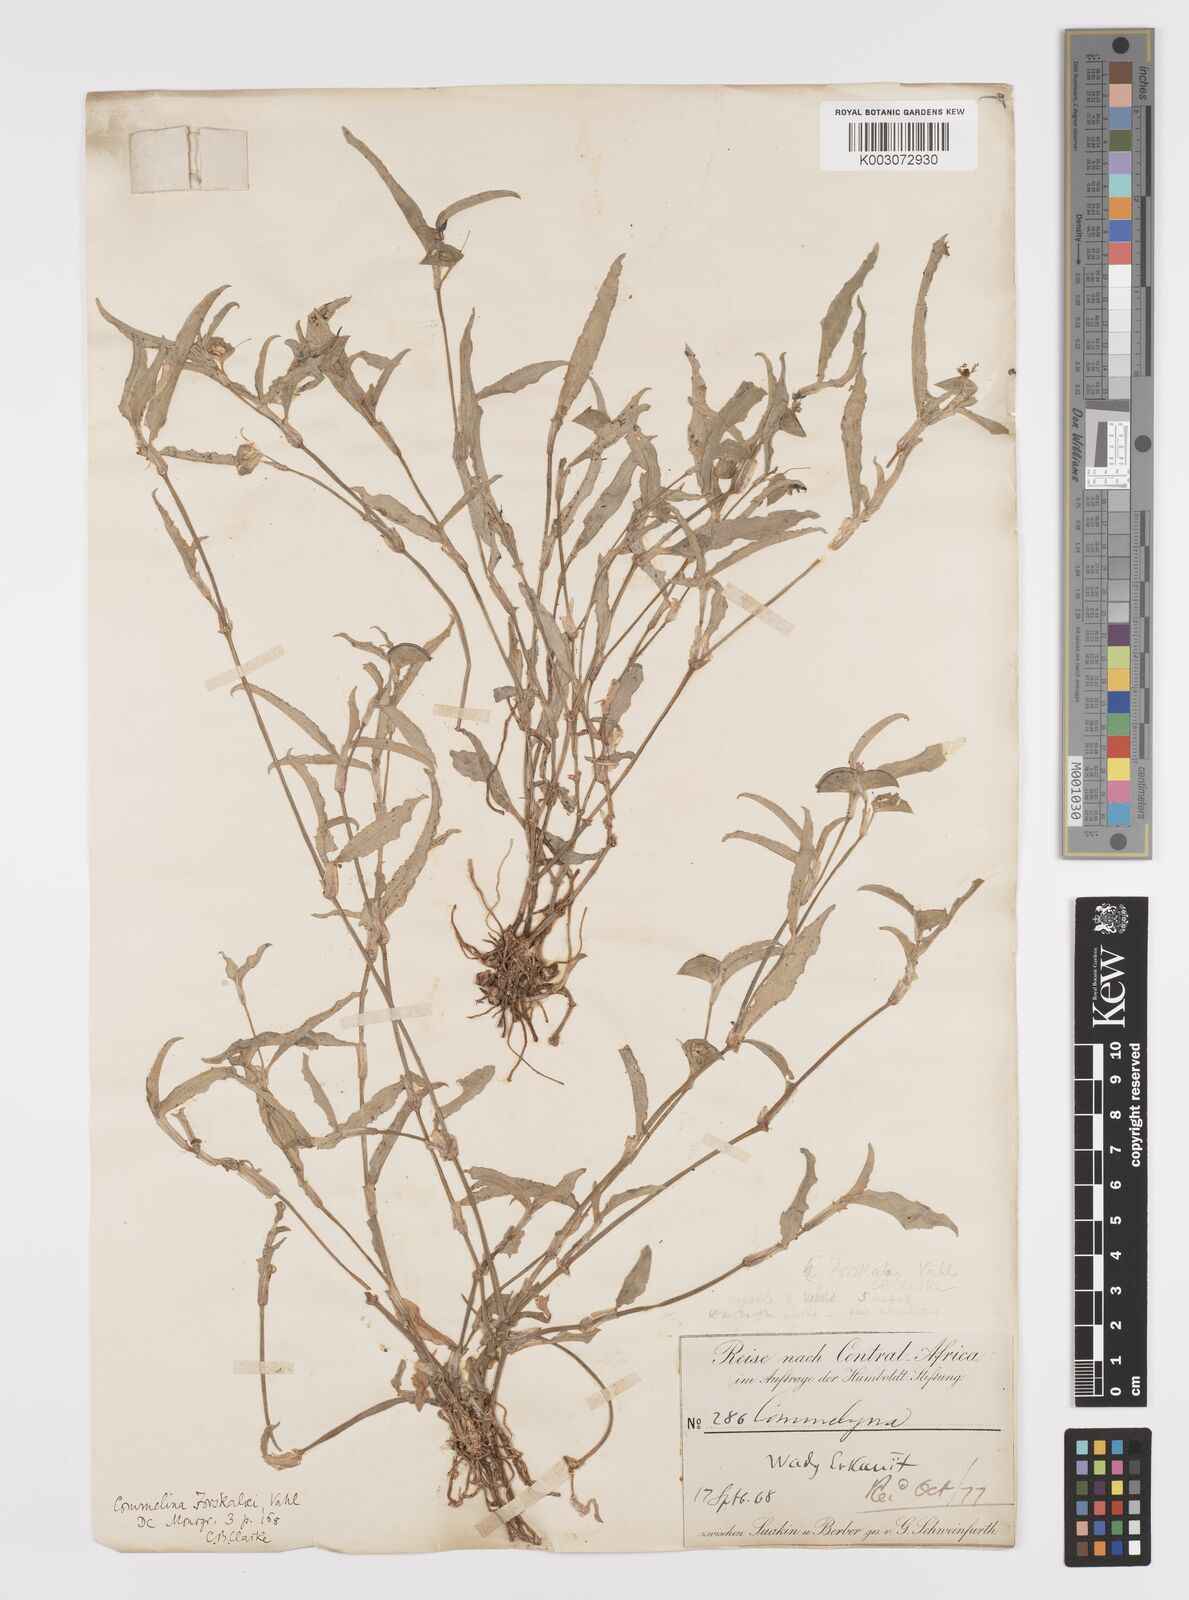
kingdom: Plantae
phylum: Tracheophyta
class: Liliopsida
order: Commelinales
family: Commelinaceae
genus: Commelina
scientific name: Commelina forskaolii
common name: Rat's ear
